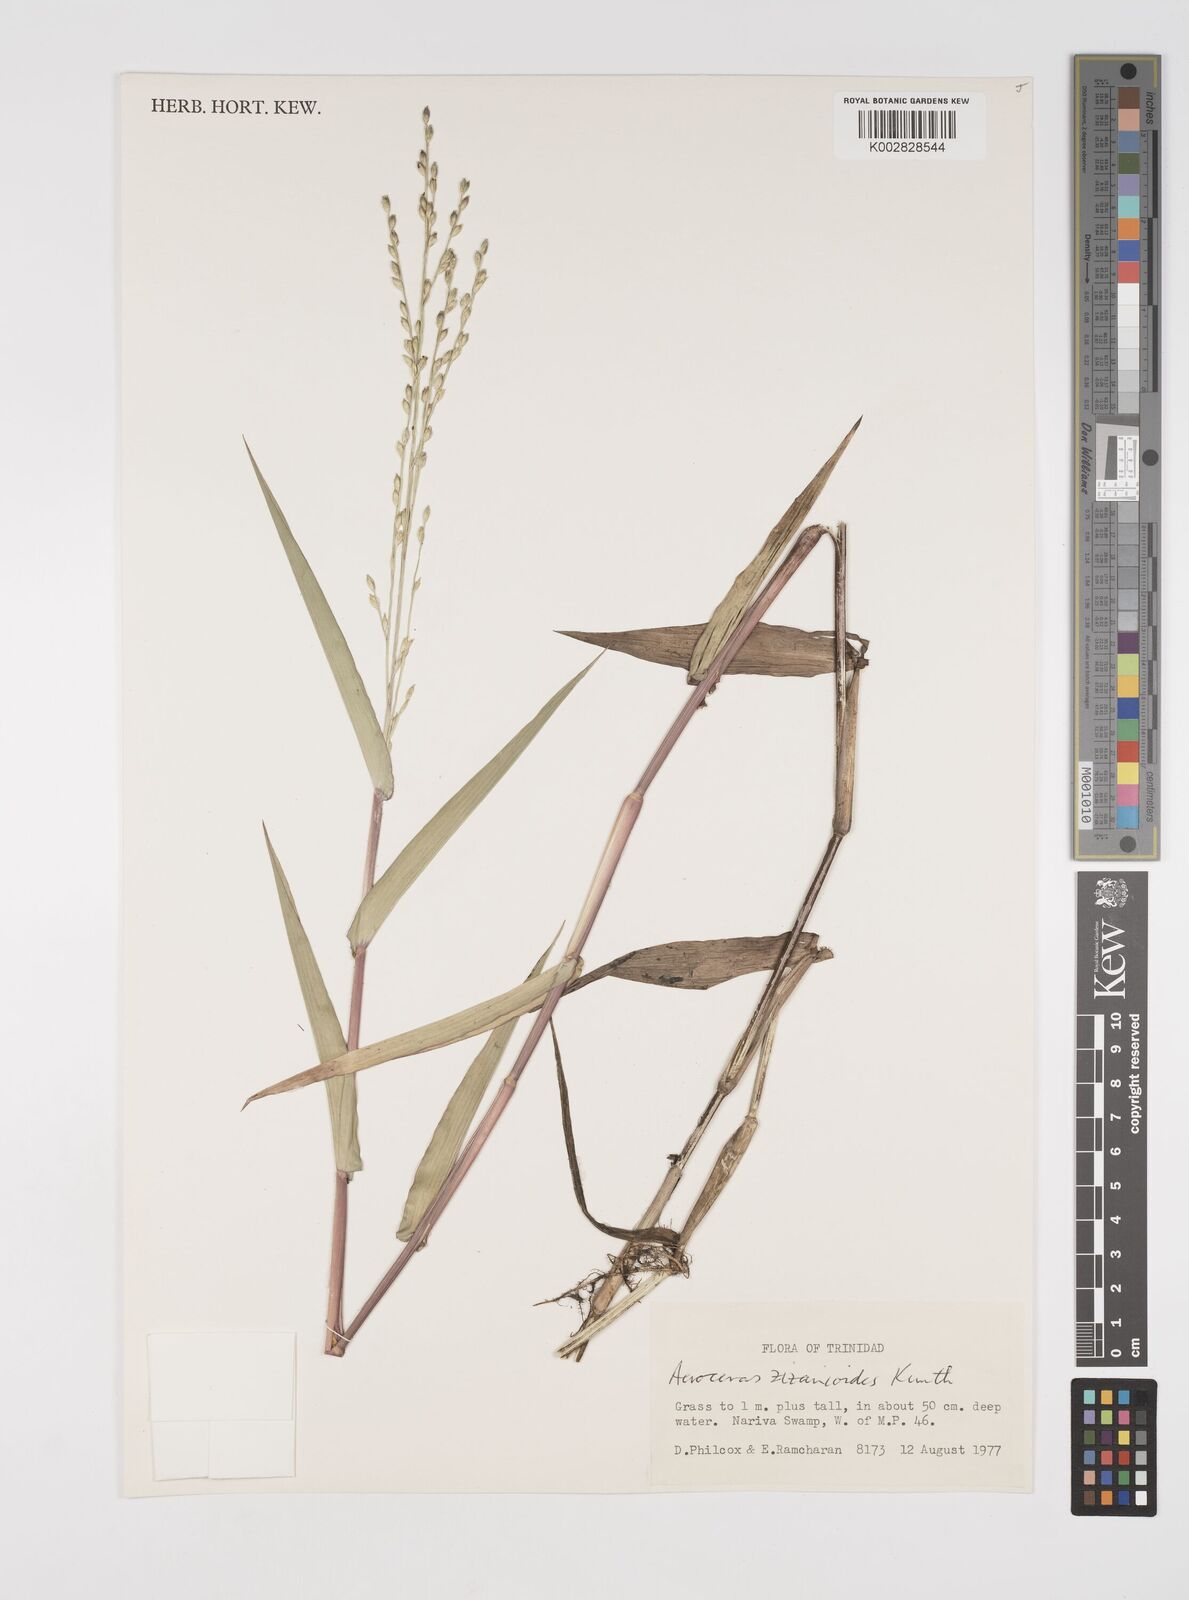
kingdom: Plantae
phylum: Tracheophyta
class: Liliopsida
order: Poales
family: Poaceae
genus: Acroceras
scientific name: Acroceras zizanioides
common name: Oat grass
